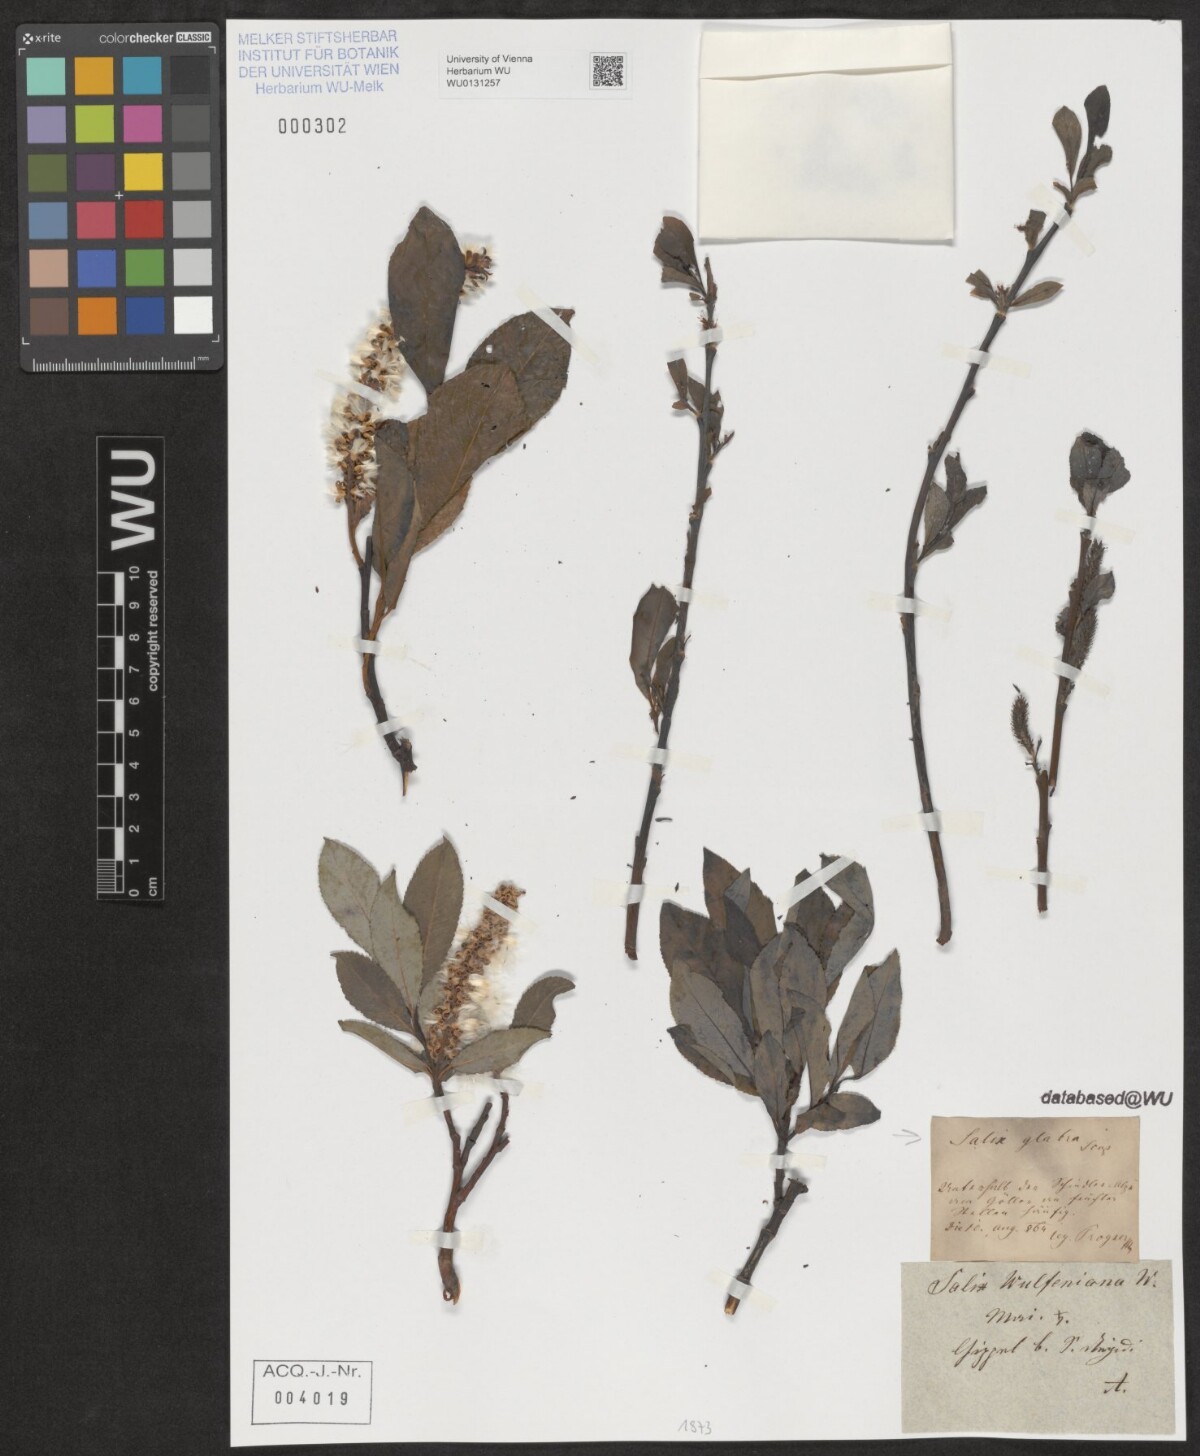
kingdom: Plantae
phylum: Tracheophyta
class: Magnoliopsida
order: Malpighiales
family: Salicaceae
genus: Salix
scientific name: Salix glabra
